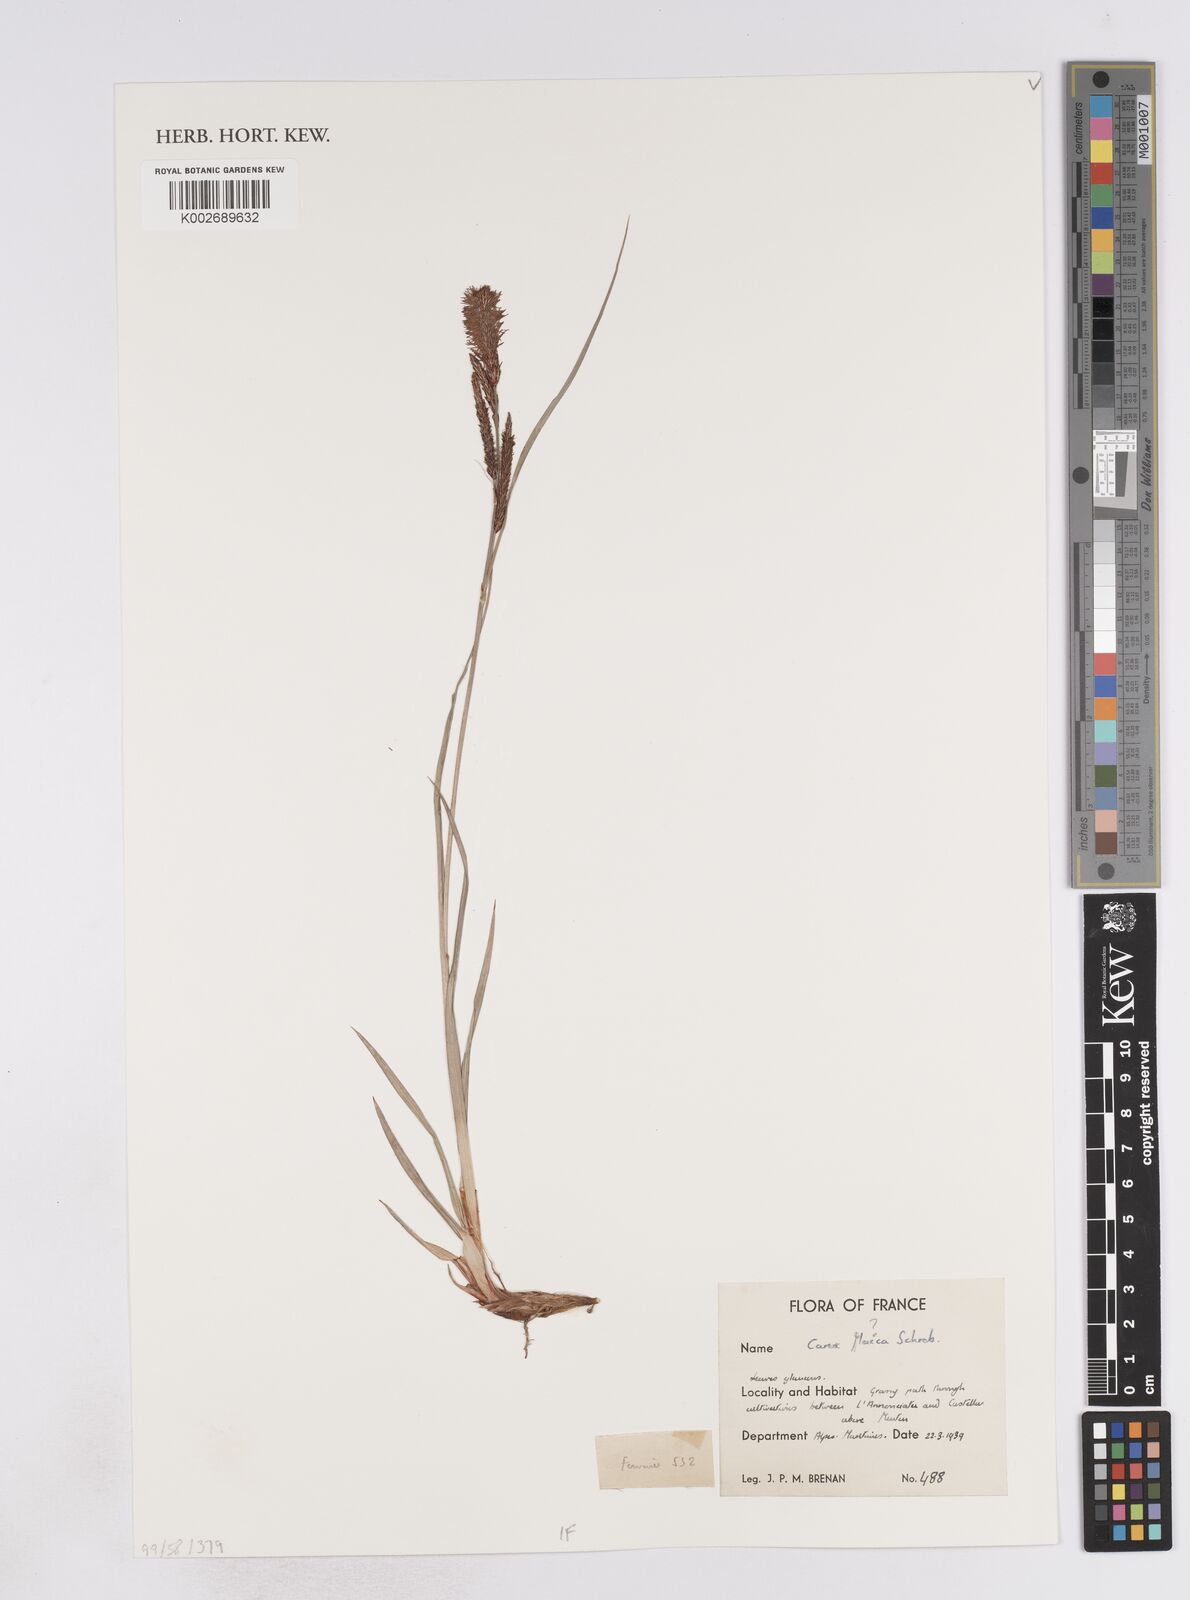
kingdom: Plantae
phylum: Tracheophyta
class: Liliopsida
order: Poales
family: Cyperaceae
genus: Carex
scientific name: Carex flacca
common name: Glaucous sedge
